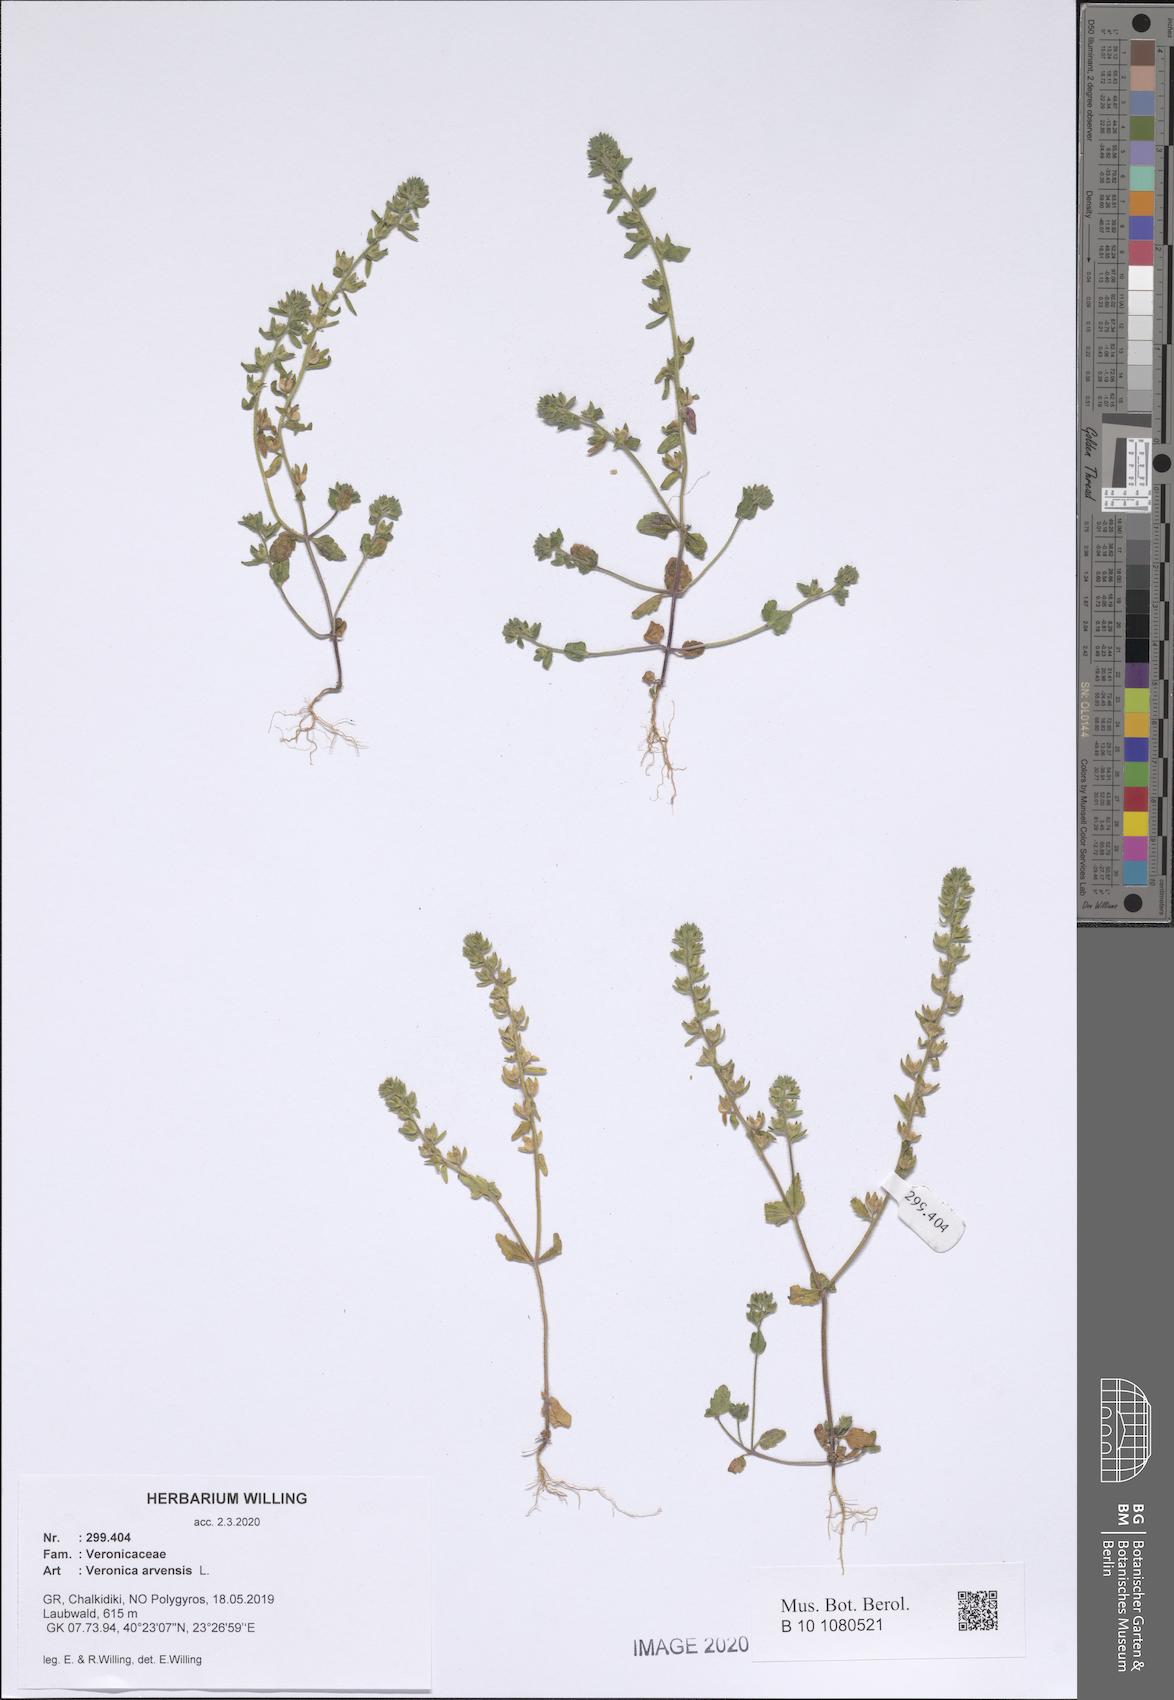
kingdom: Plantae
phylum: Tracheophyta
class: Magnoliopsida
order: Lamiales
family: Plantaginaceae
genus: Veronica
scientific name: Veronica arvensis
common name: Corn speedwell
